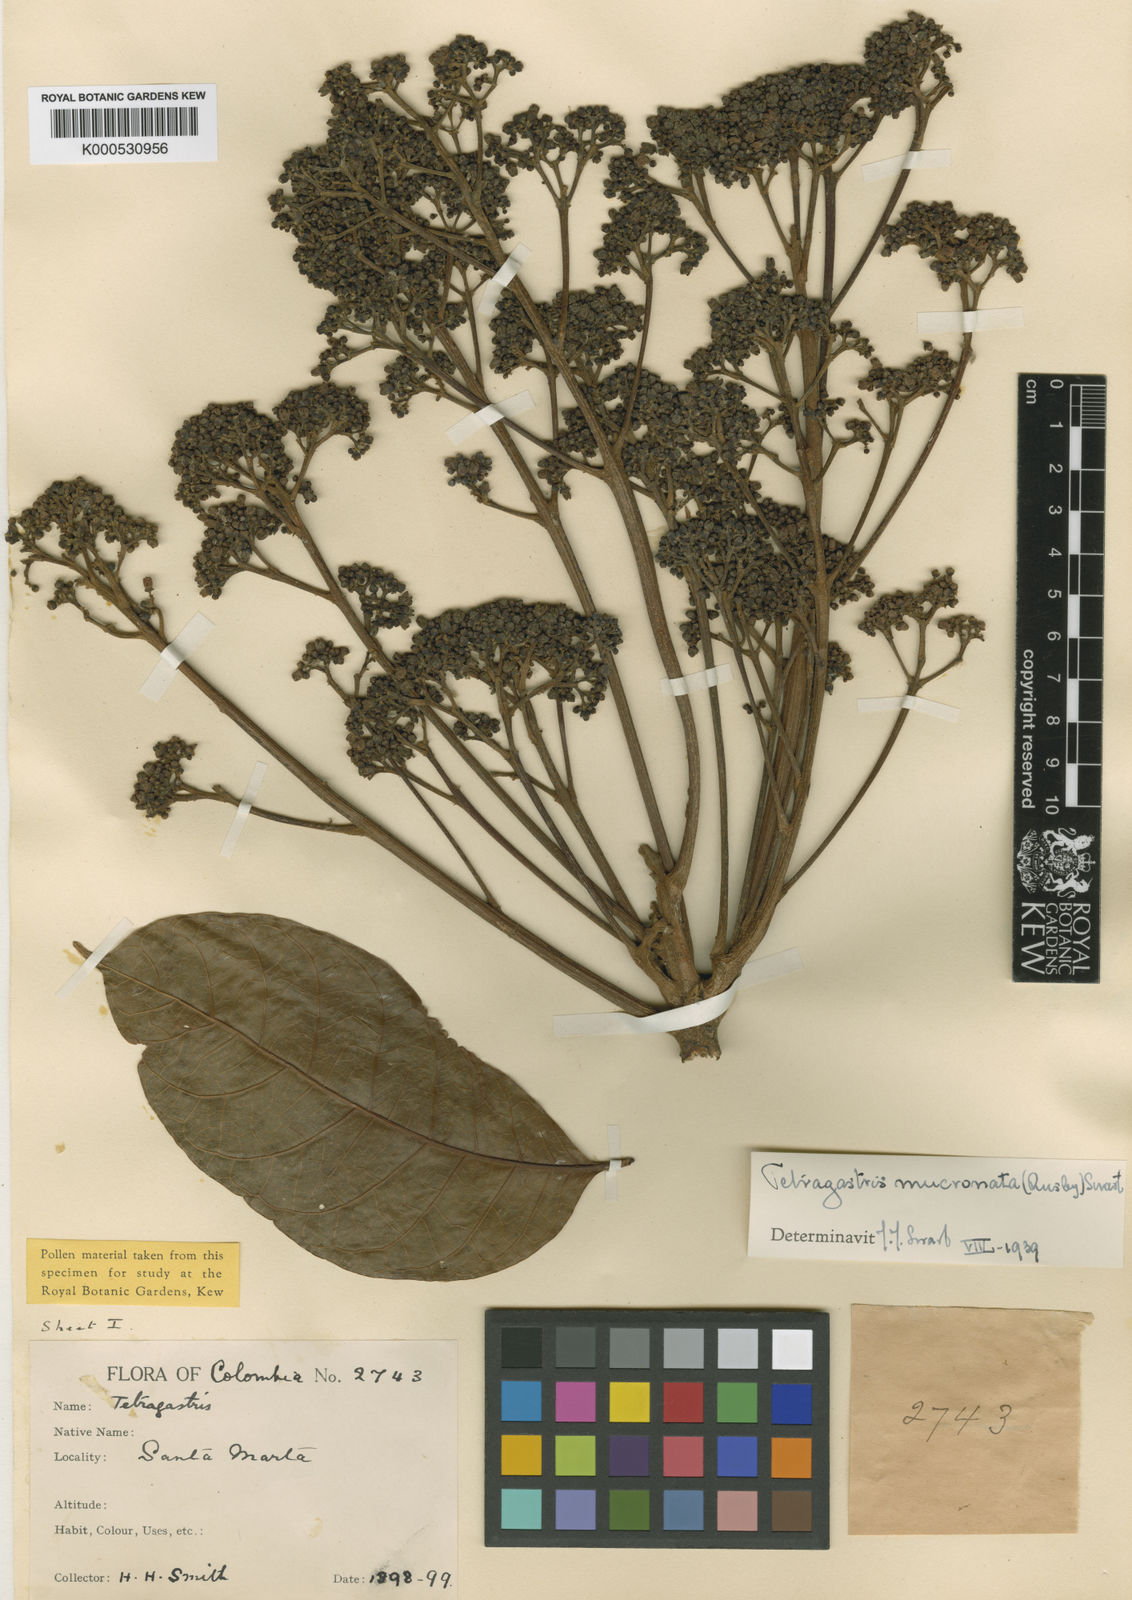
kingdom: Plantae
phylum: Tracheophyta
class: Magnoliopsida
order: Sapindales
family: Burseraceae
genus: Tetragastris
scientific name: Tetragastris mucronata
